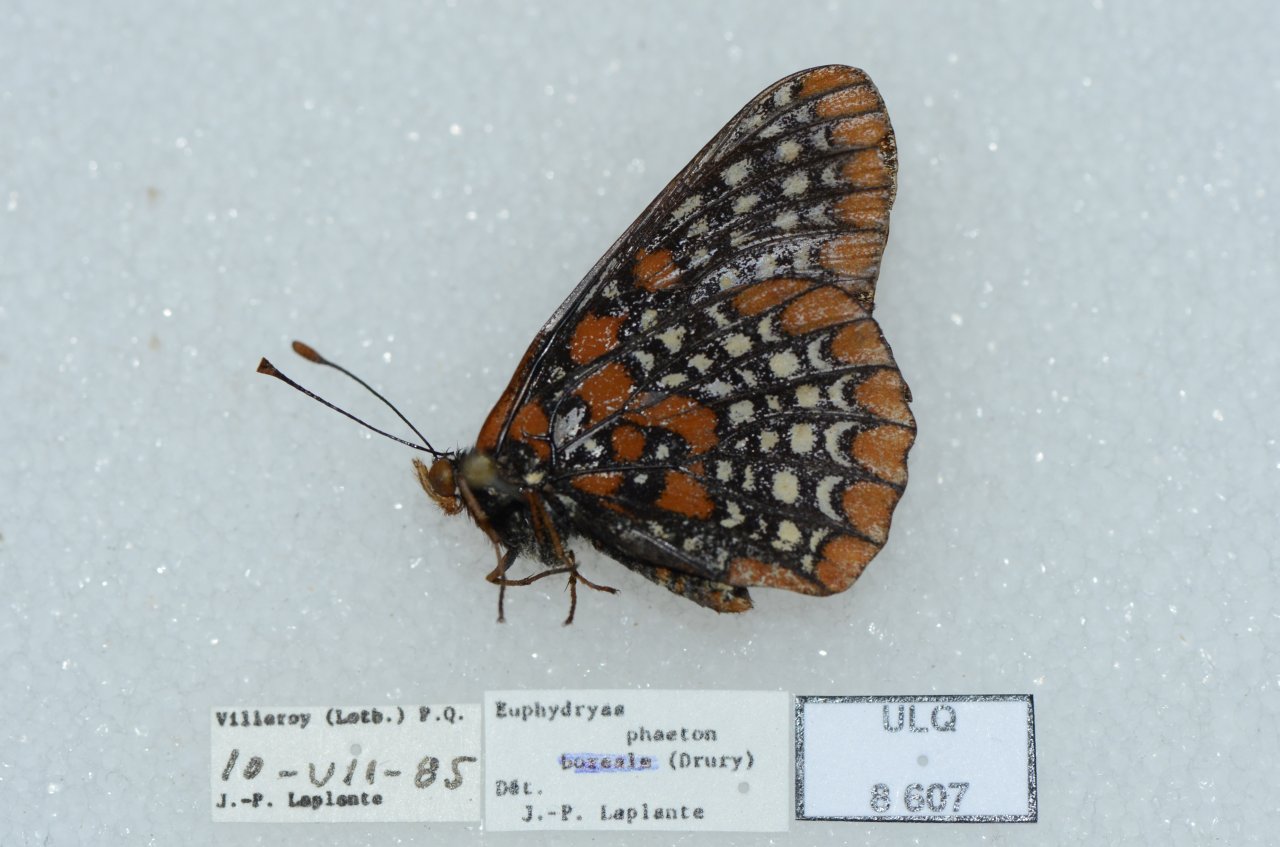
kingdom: Animalia
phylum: Arthropoda
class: Insecta
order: Lepidoptera
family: Nymphalidae
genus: Euphydryas
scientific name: Euphydryas phaeton
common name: Baltimore Checkerspot
